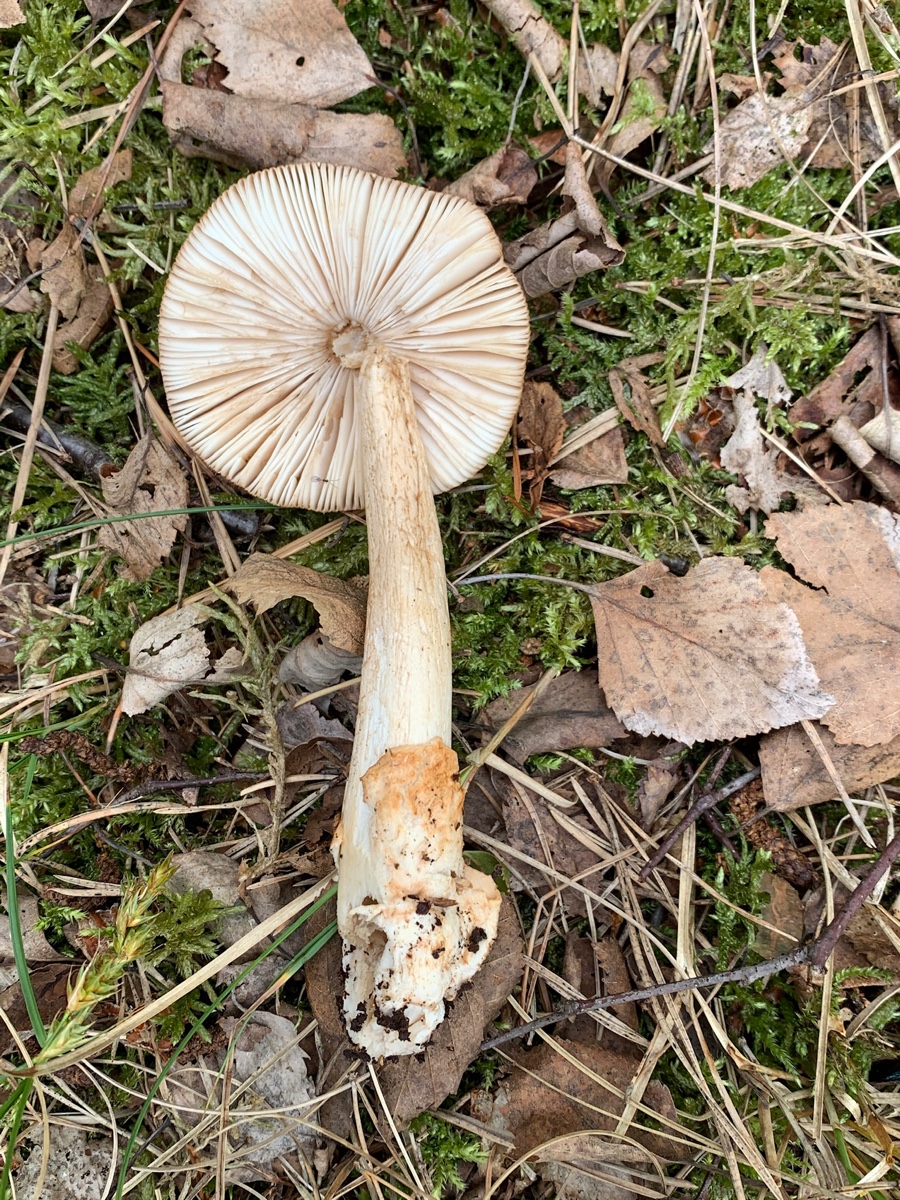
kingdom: Fungi
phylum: Basidiomycota
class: Agaricomycetes
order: Agaricales
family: Amanitaceae
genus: Amanita
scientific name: Amanita fulva
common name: brun kam-fluesvamp
